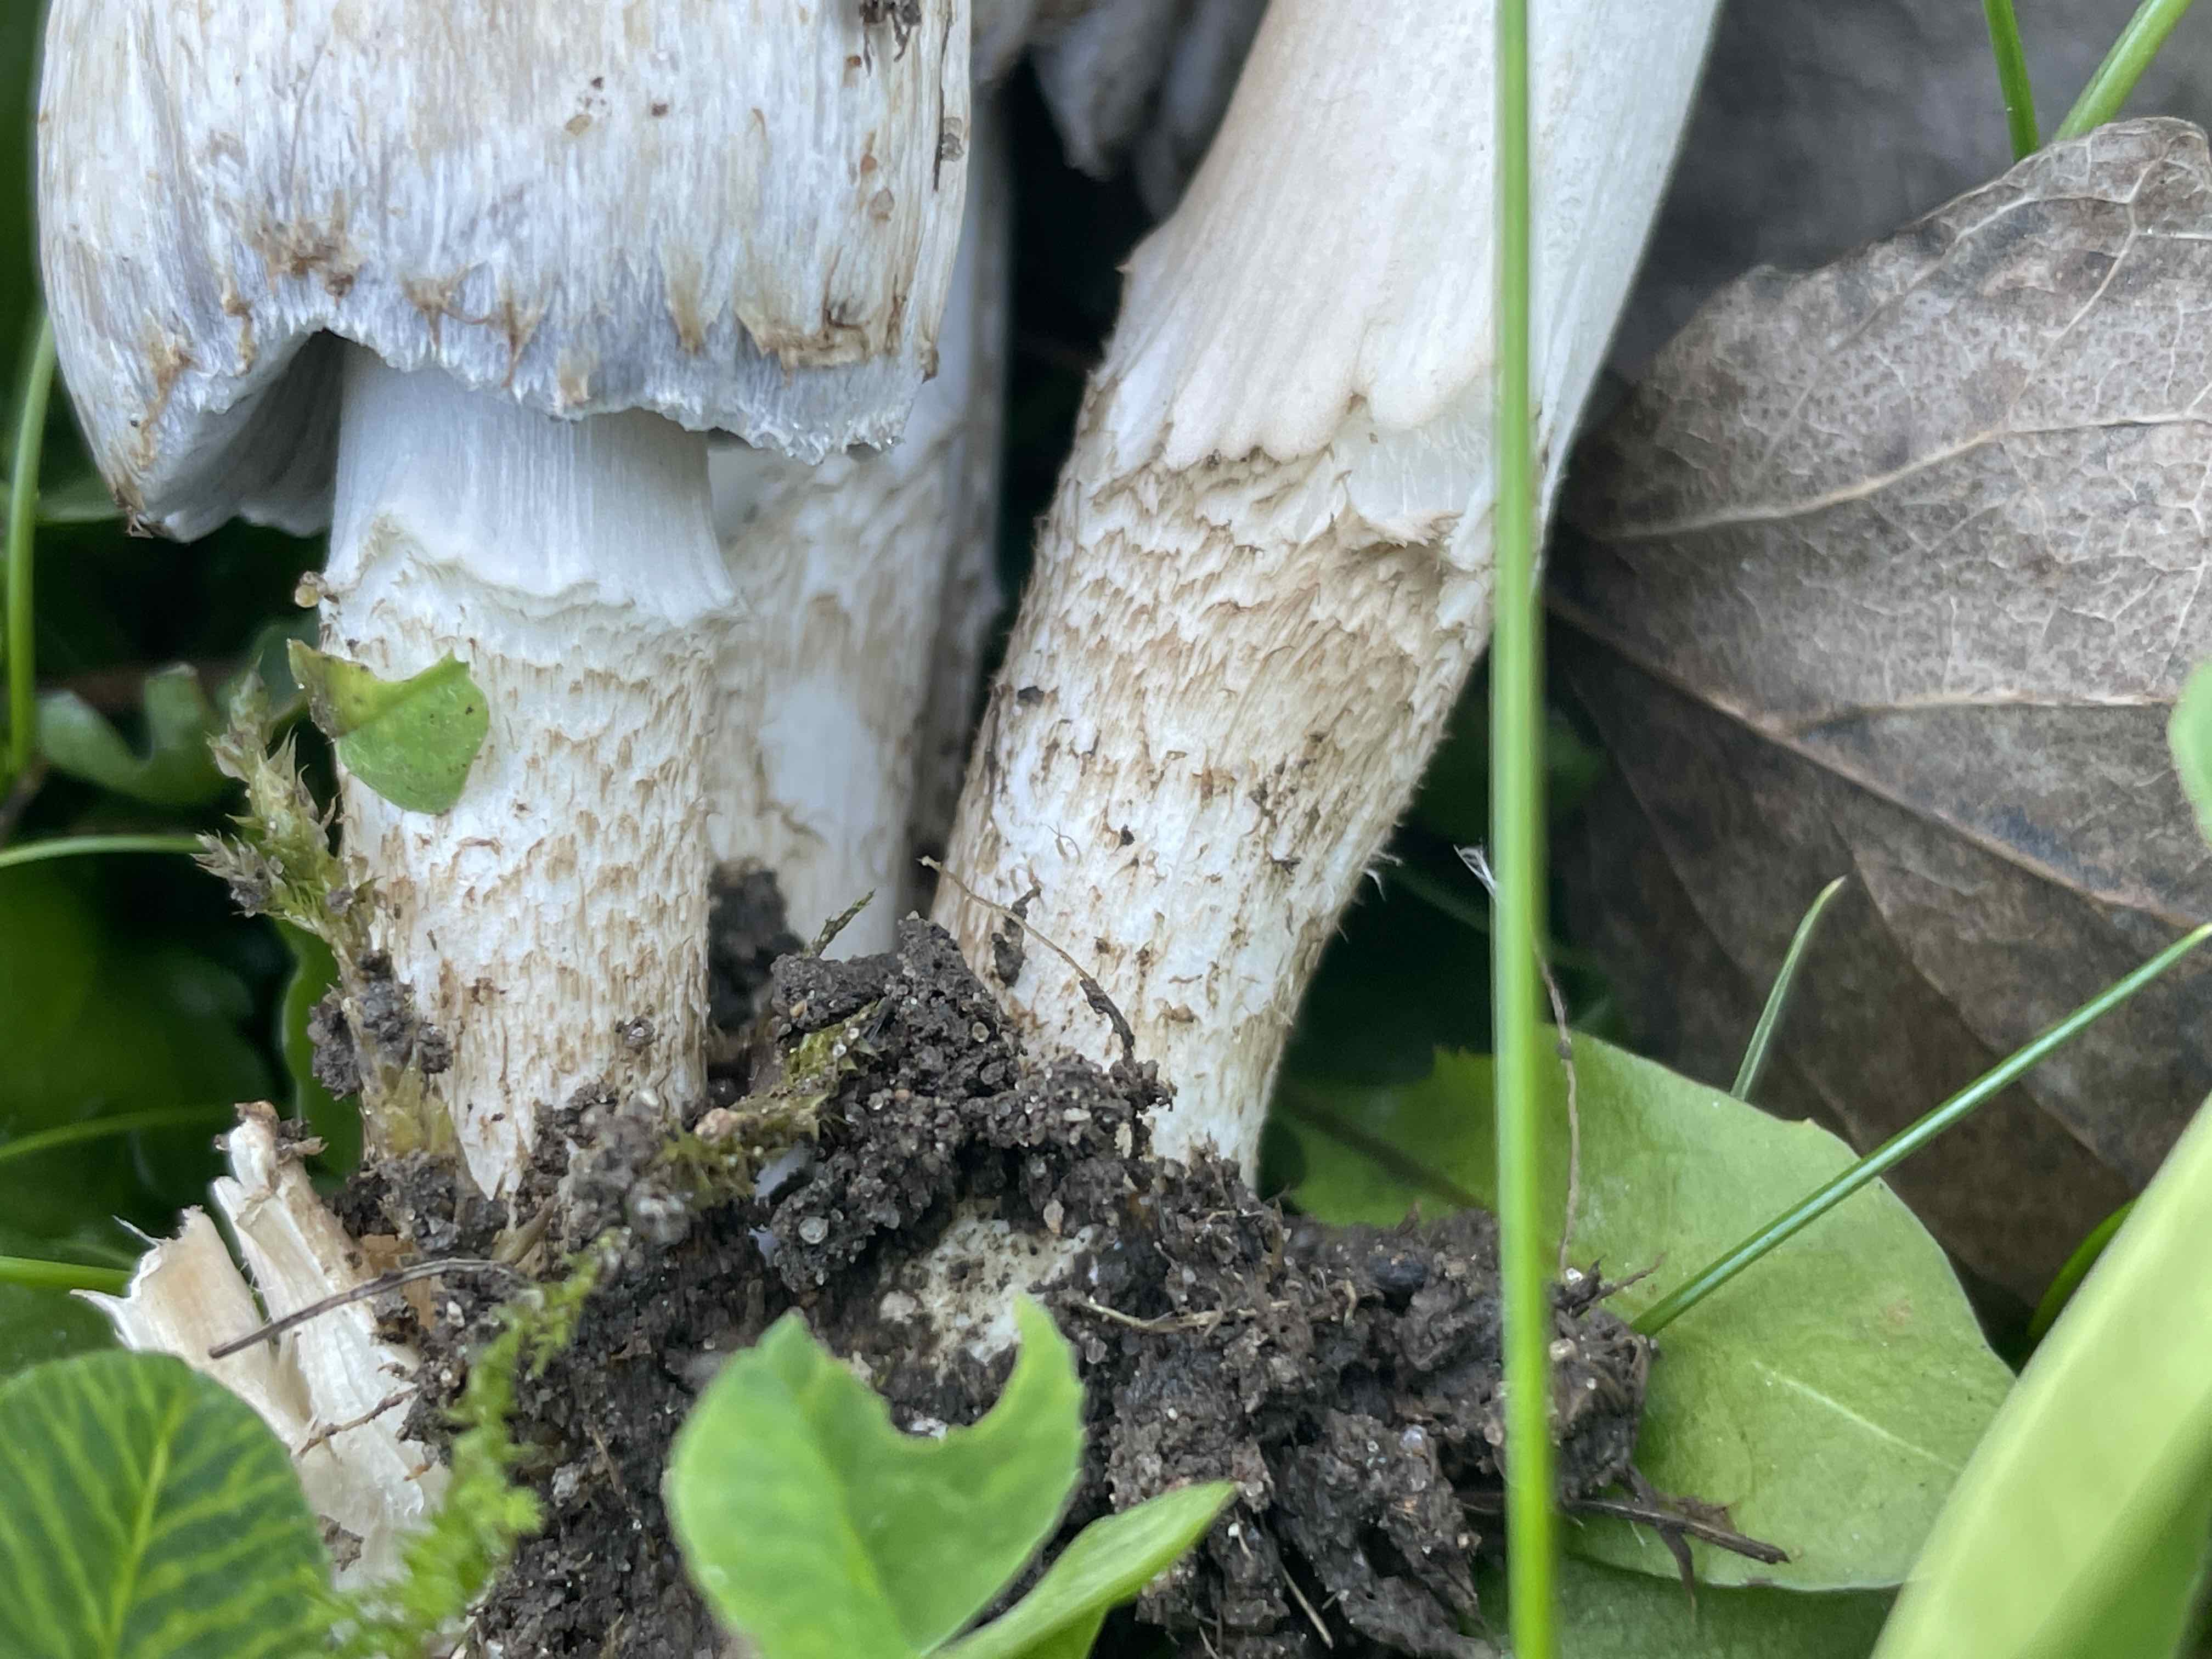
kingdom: Fungi
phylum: Basidiomycota
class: Agaricomycetes
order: Agaricales
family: Psathyrellaceae
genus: Coprinopsis
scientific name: Coprinopsis romagnesiana
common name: brunskællet blækhat
